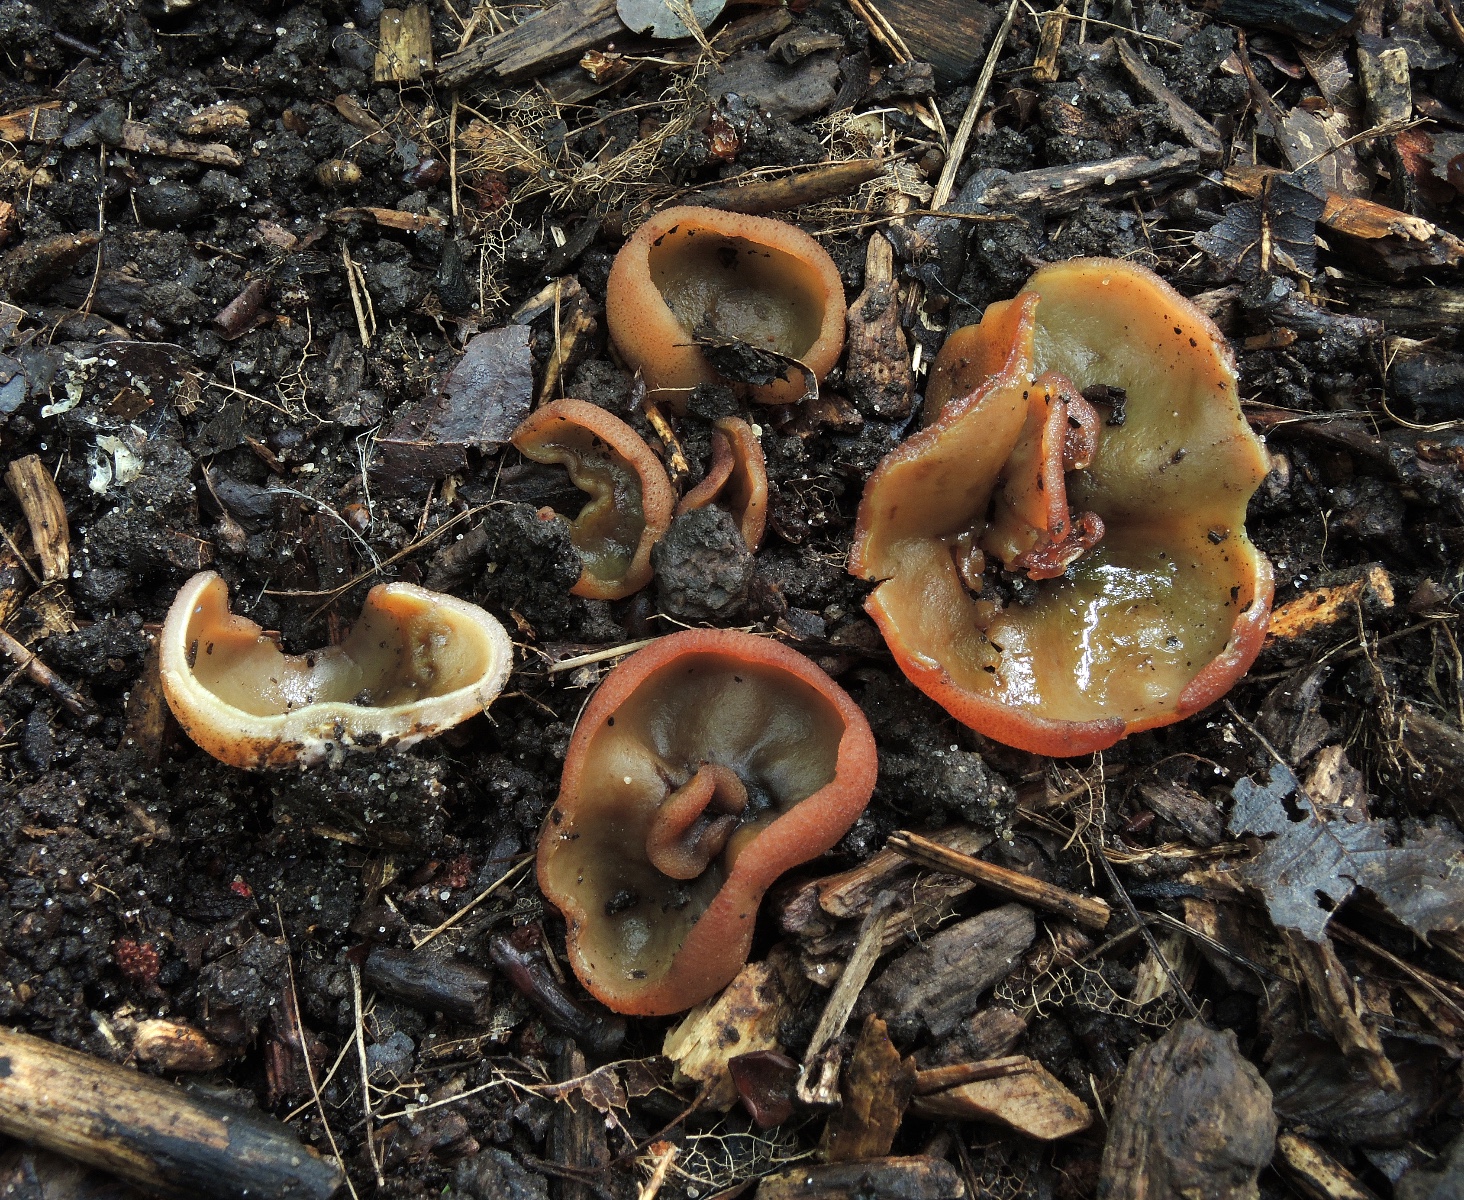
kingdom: Fungi
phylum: Ascomycota
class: Pezizomycetes
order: Pezizales
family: Pezizaceae
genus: Peziza
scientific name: Peziza
